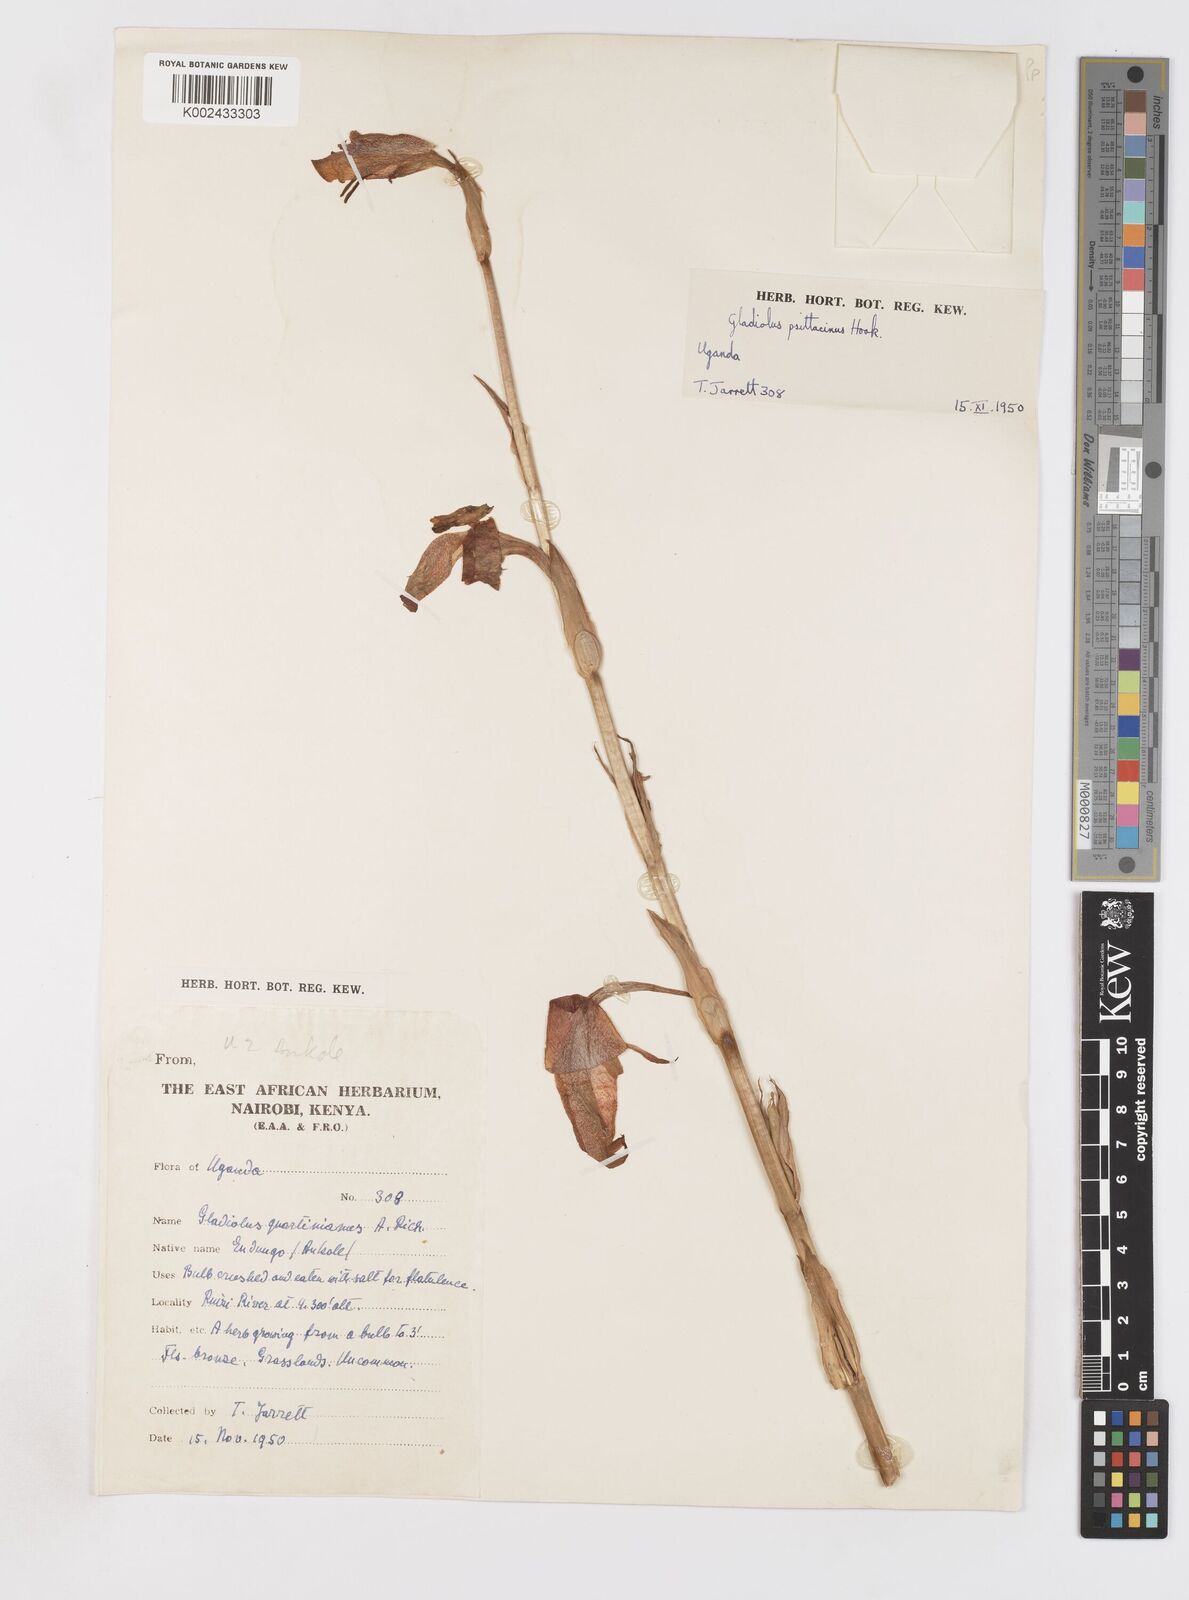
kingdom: Plantae
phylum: Tracheophyta
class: Liliopsida
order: Asparagales
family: Iridaceae
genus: Gladiolus
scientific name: Gladiolus dalenii
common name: Cornflag
